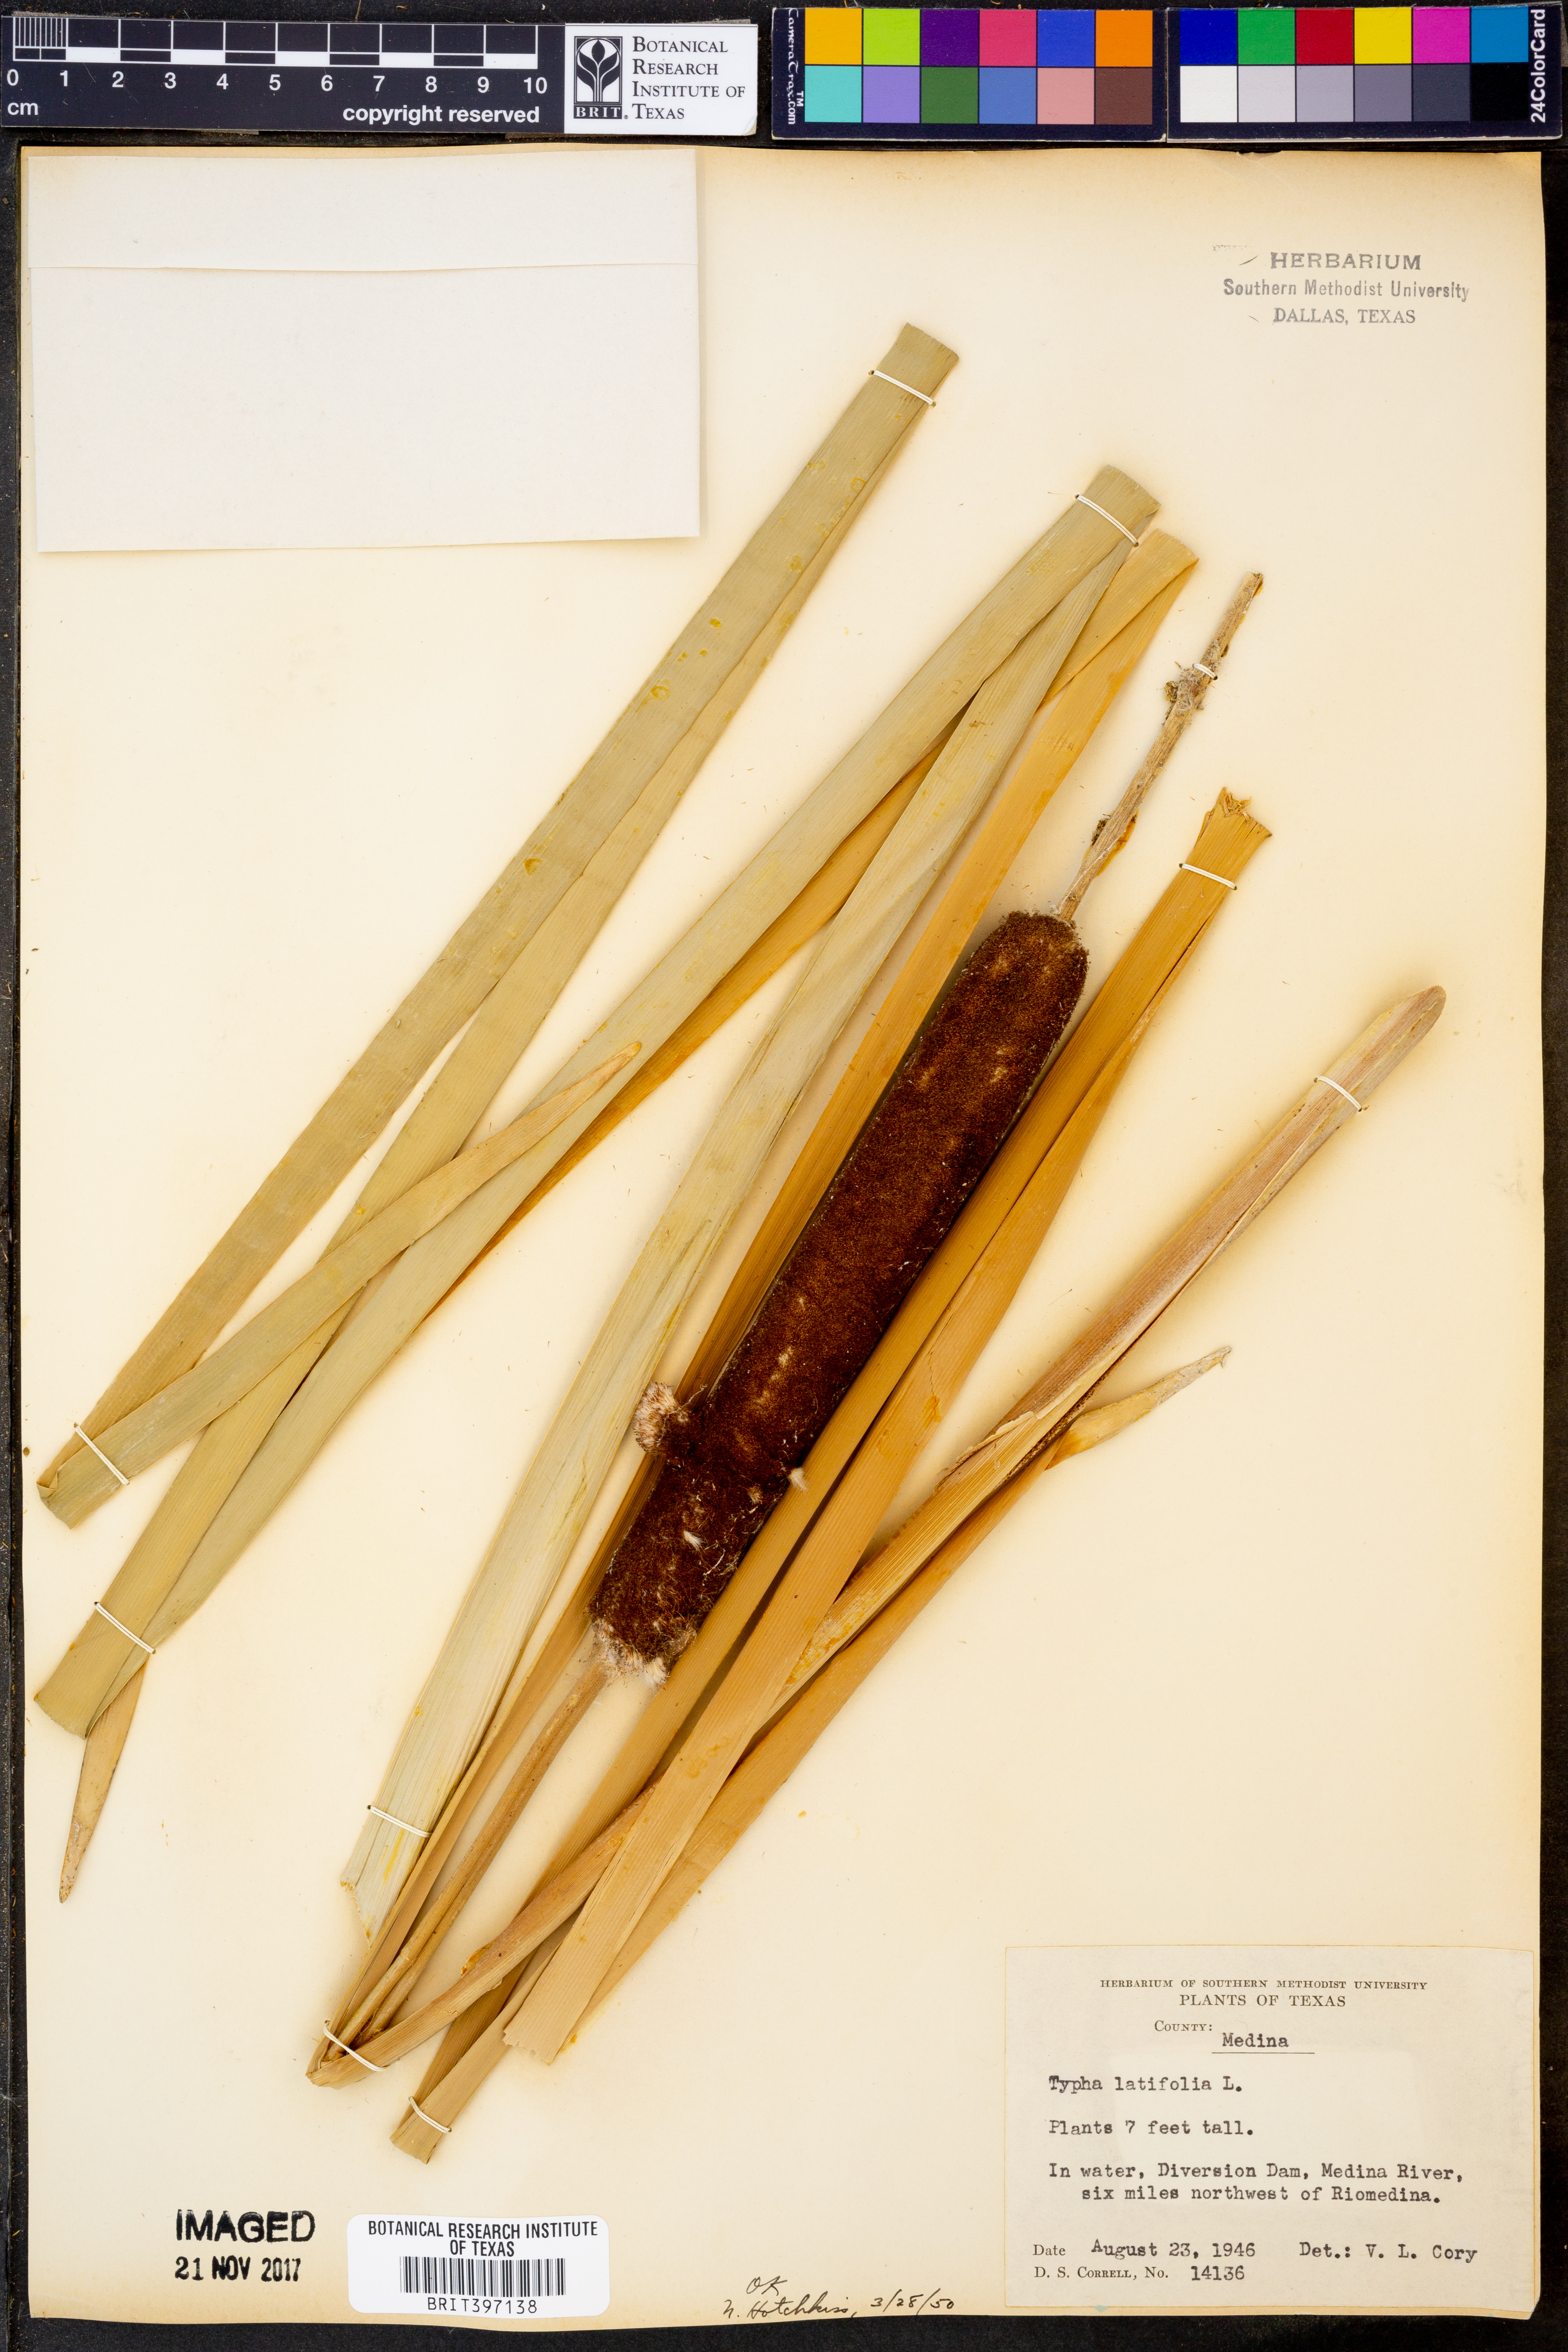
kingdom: Plantae
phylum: Tracheophyta
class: Liliopsida
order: Poales
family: Typhaceae
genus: Typha
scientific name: Typha latifolia
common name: Broadleaf cattail
